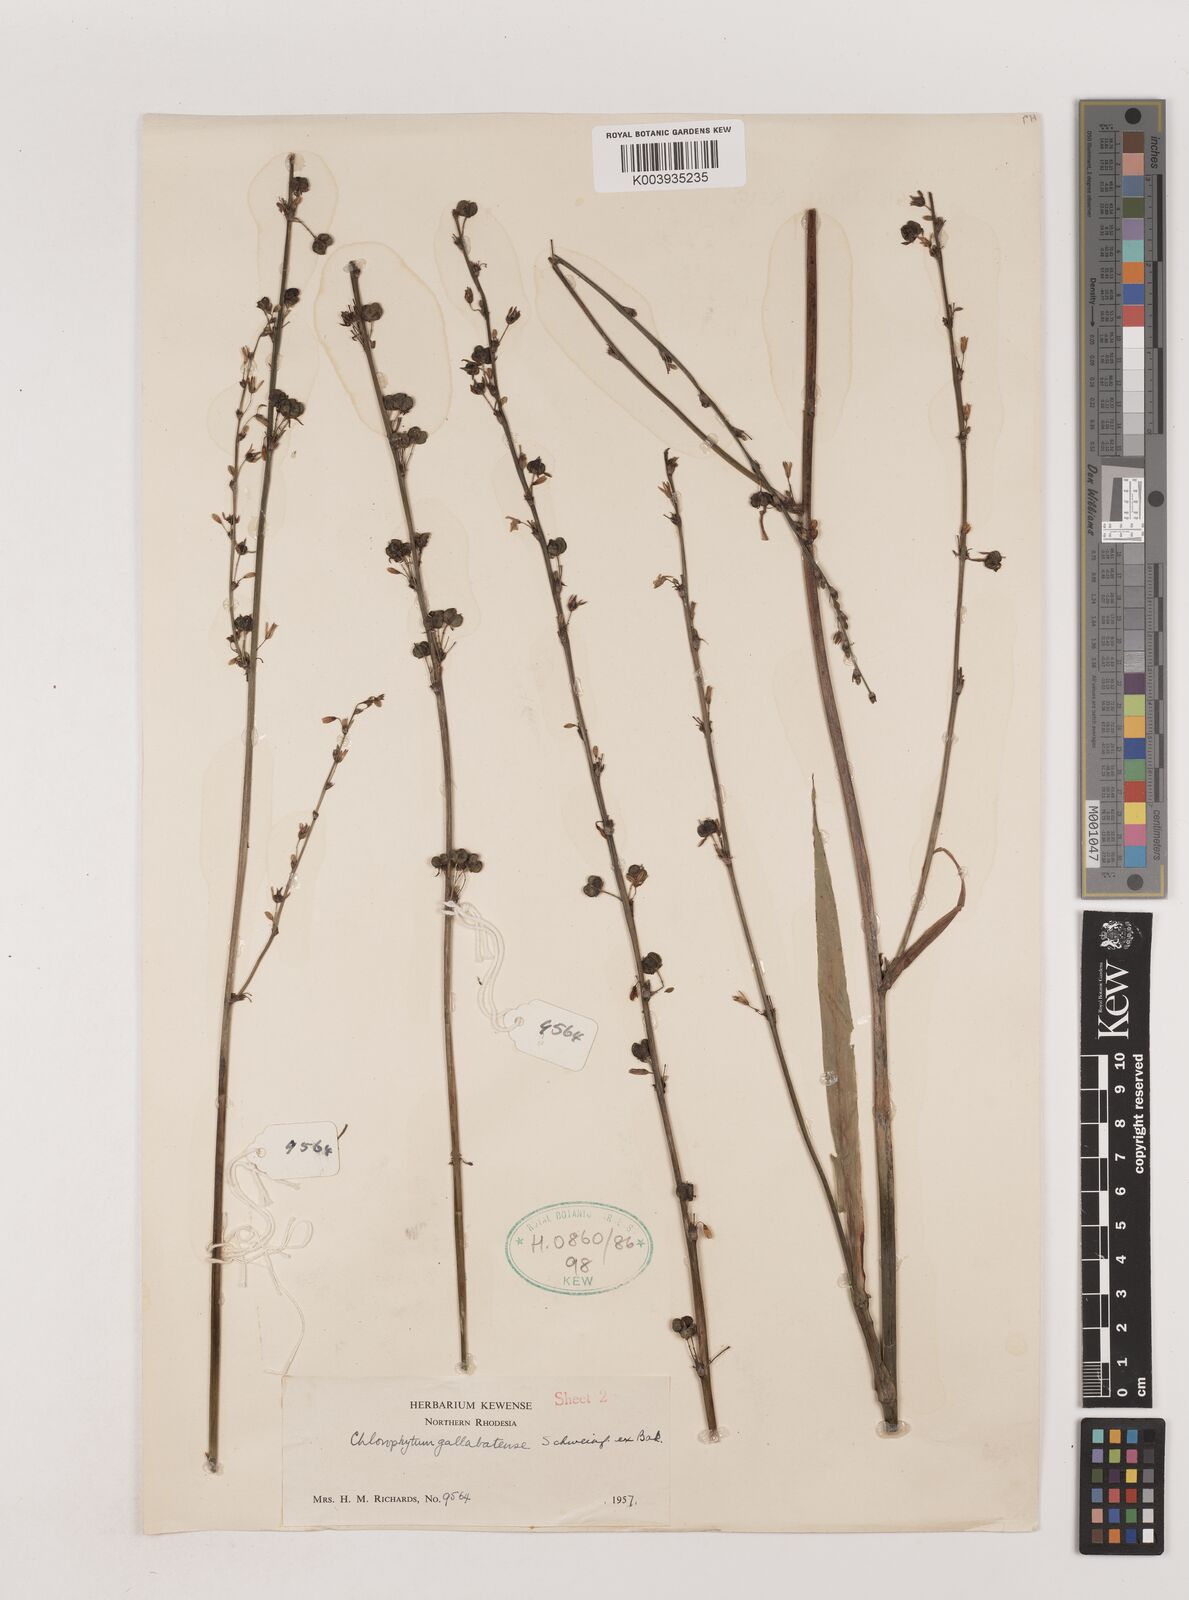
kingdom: Plantae
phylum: Tracheophyta
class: Liliopsida
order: Asparagales
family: Asparagaceae
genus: Chlorophytum
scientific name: Chlorophytum gallabatense
